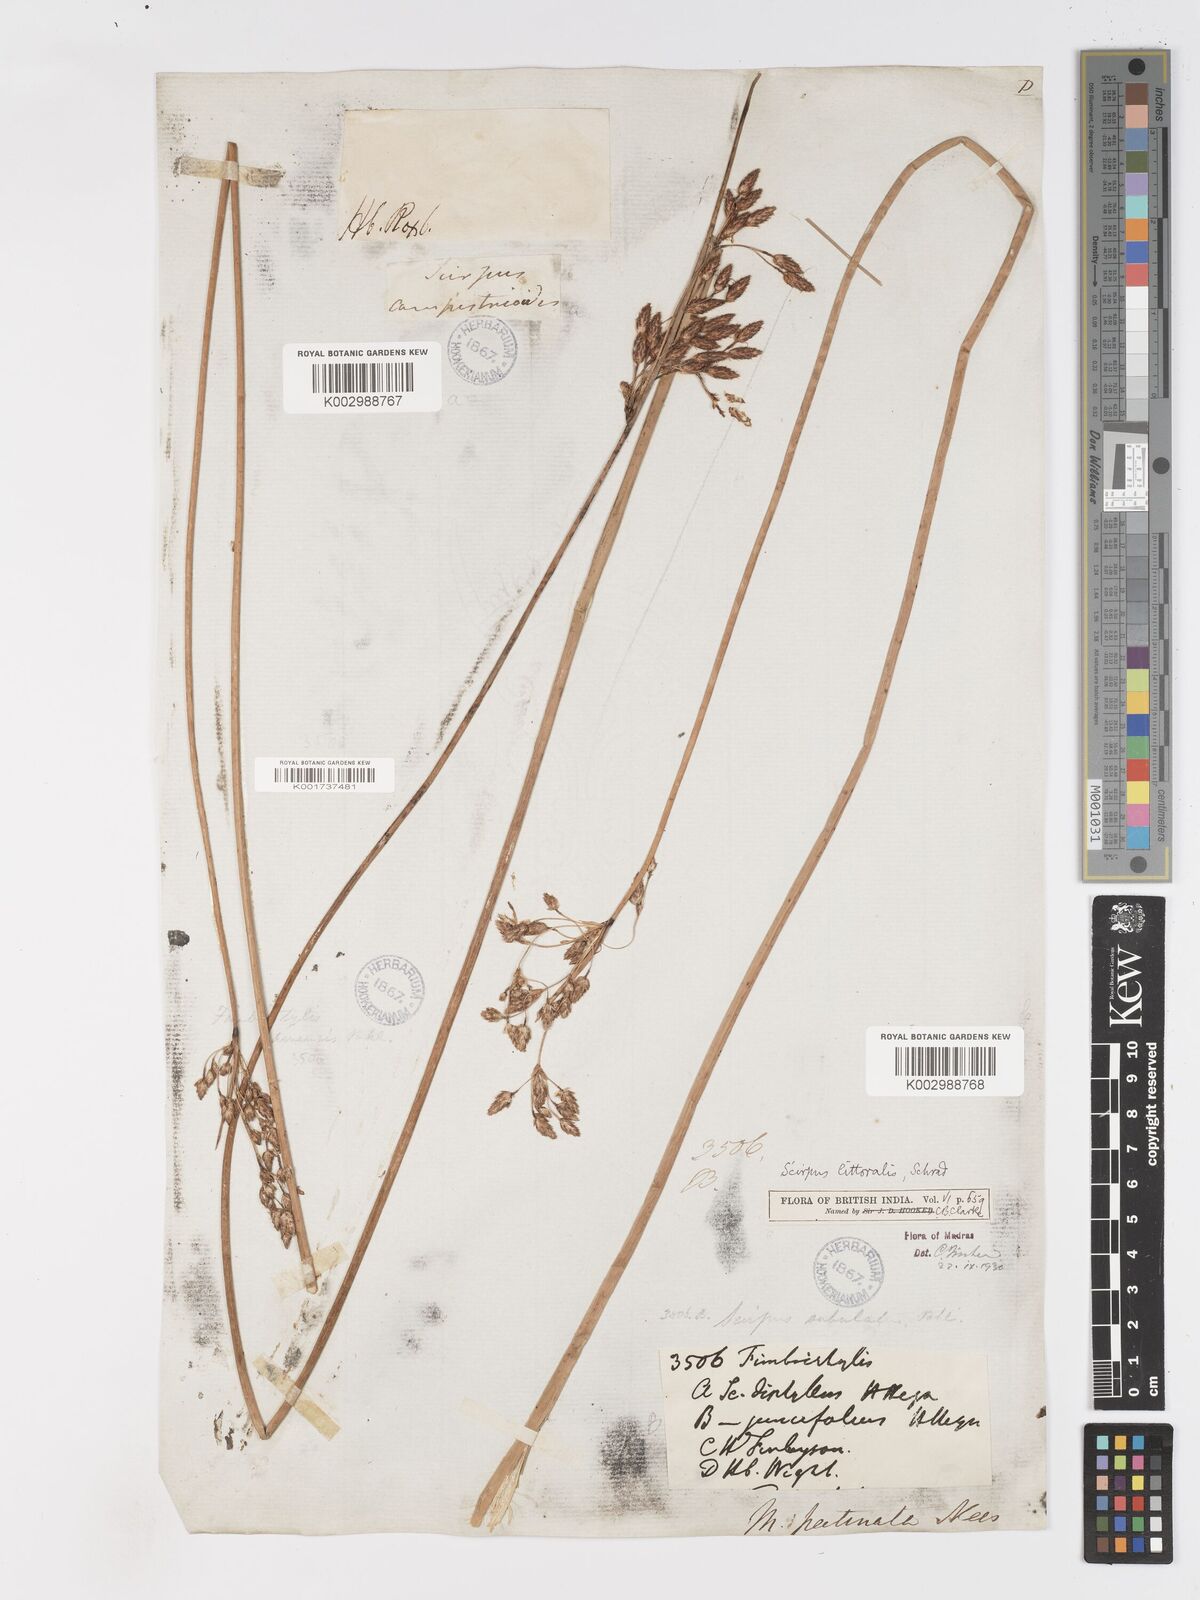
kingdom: Plantae
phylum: Tracheophyta
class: Liliopsida
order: Poales
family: Cyperaceae
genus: Schoenoplectus
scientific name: Schoenoplectus litoralis
